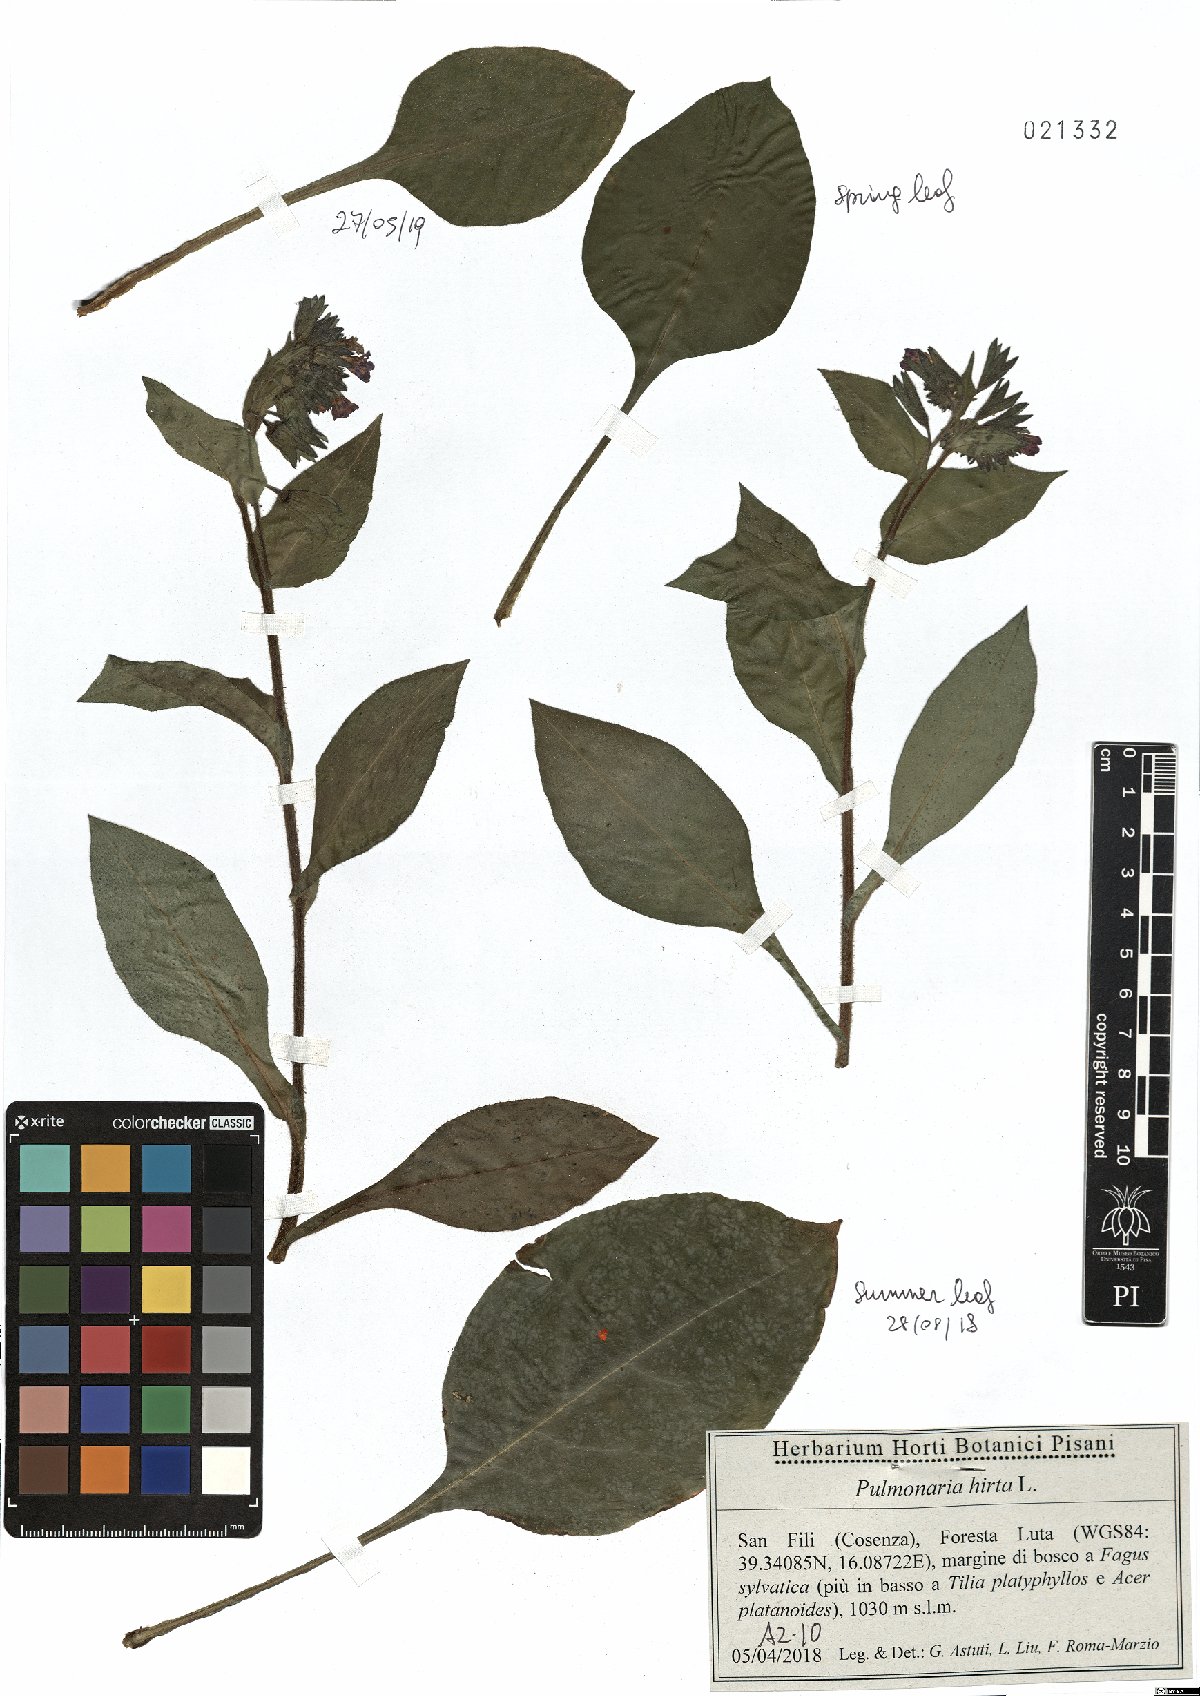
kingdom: Plantae
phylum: Tracheophyta
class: Magnoliopsida
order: Boraginales
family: Boraginaceae
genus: Pulmonaria
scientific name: Pulmonaria hirta
